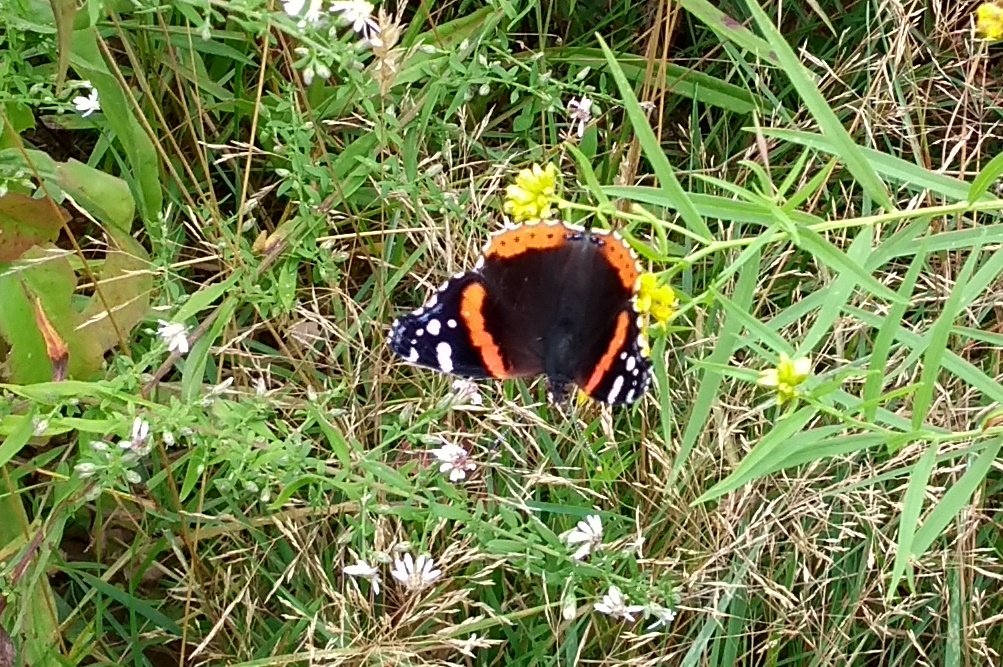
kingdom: Animalia
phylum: Arthropoda
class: Insecta
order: Lepidoptera
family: Nymphalidae
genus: Vanessa
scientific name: Vanessa atalanta
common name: Red Admiral
